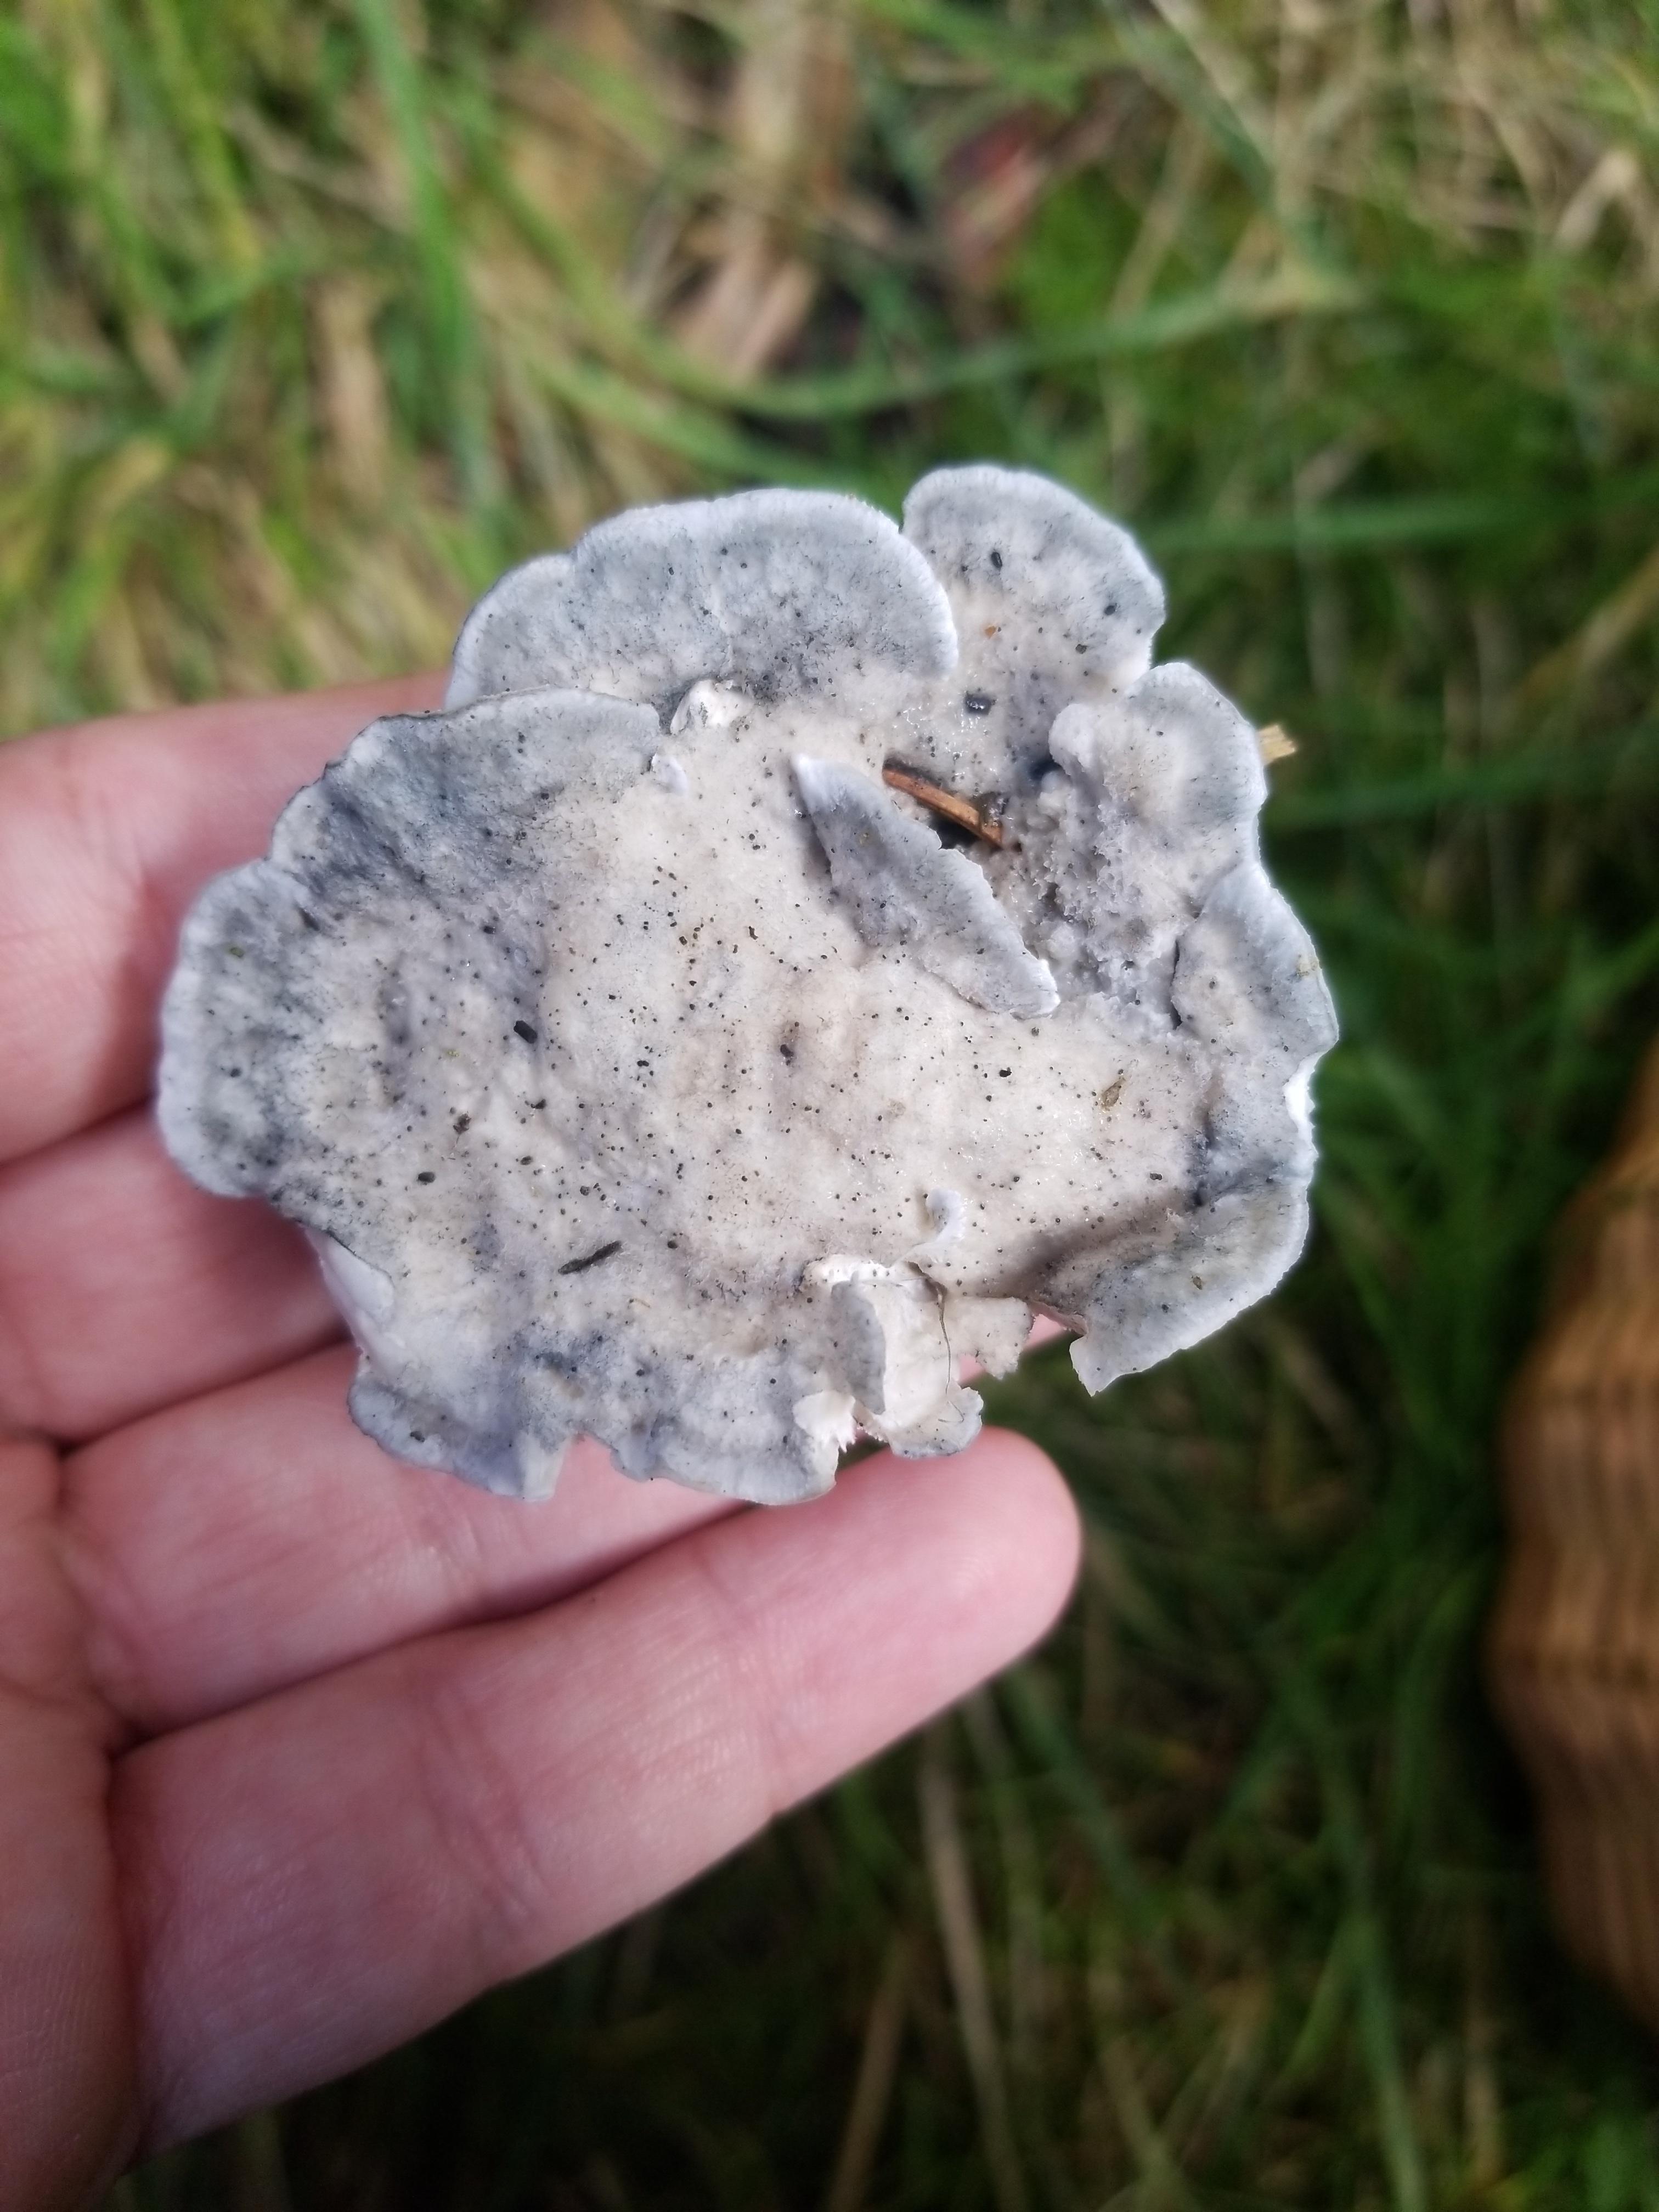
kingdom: Fungi
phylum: Basidiomycota
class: Agaricomycetes
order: Polyporales
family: Polyporaceae
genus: Cyanosporus
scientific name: Cyanosporus caesius
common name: blålig kødporesvamp
